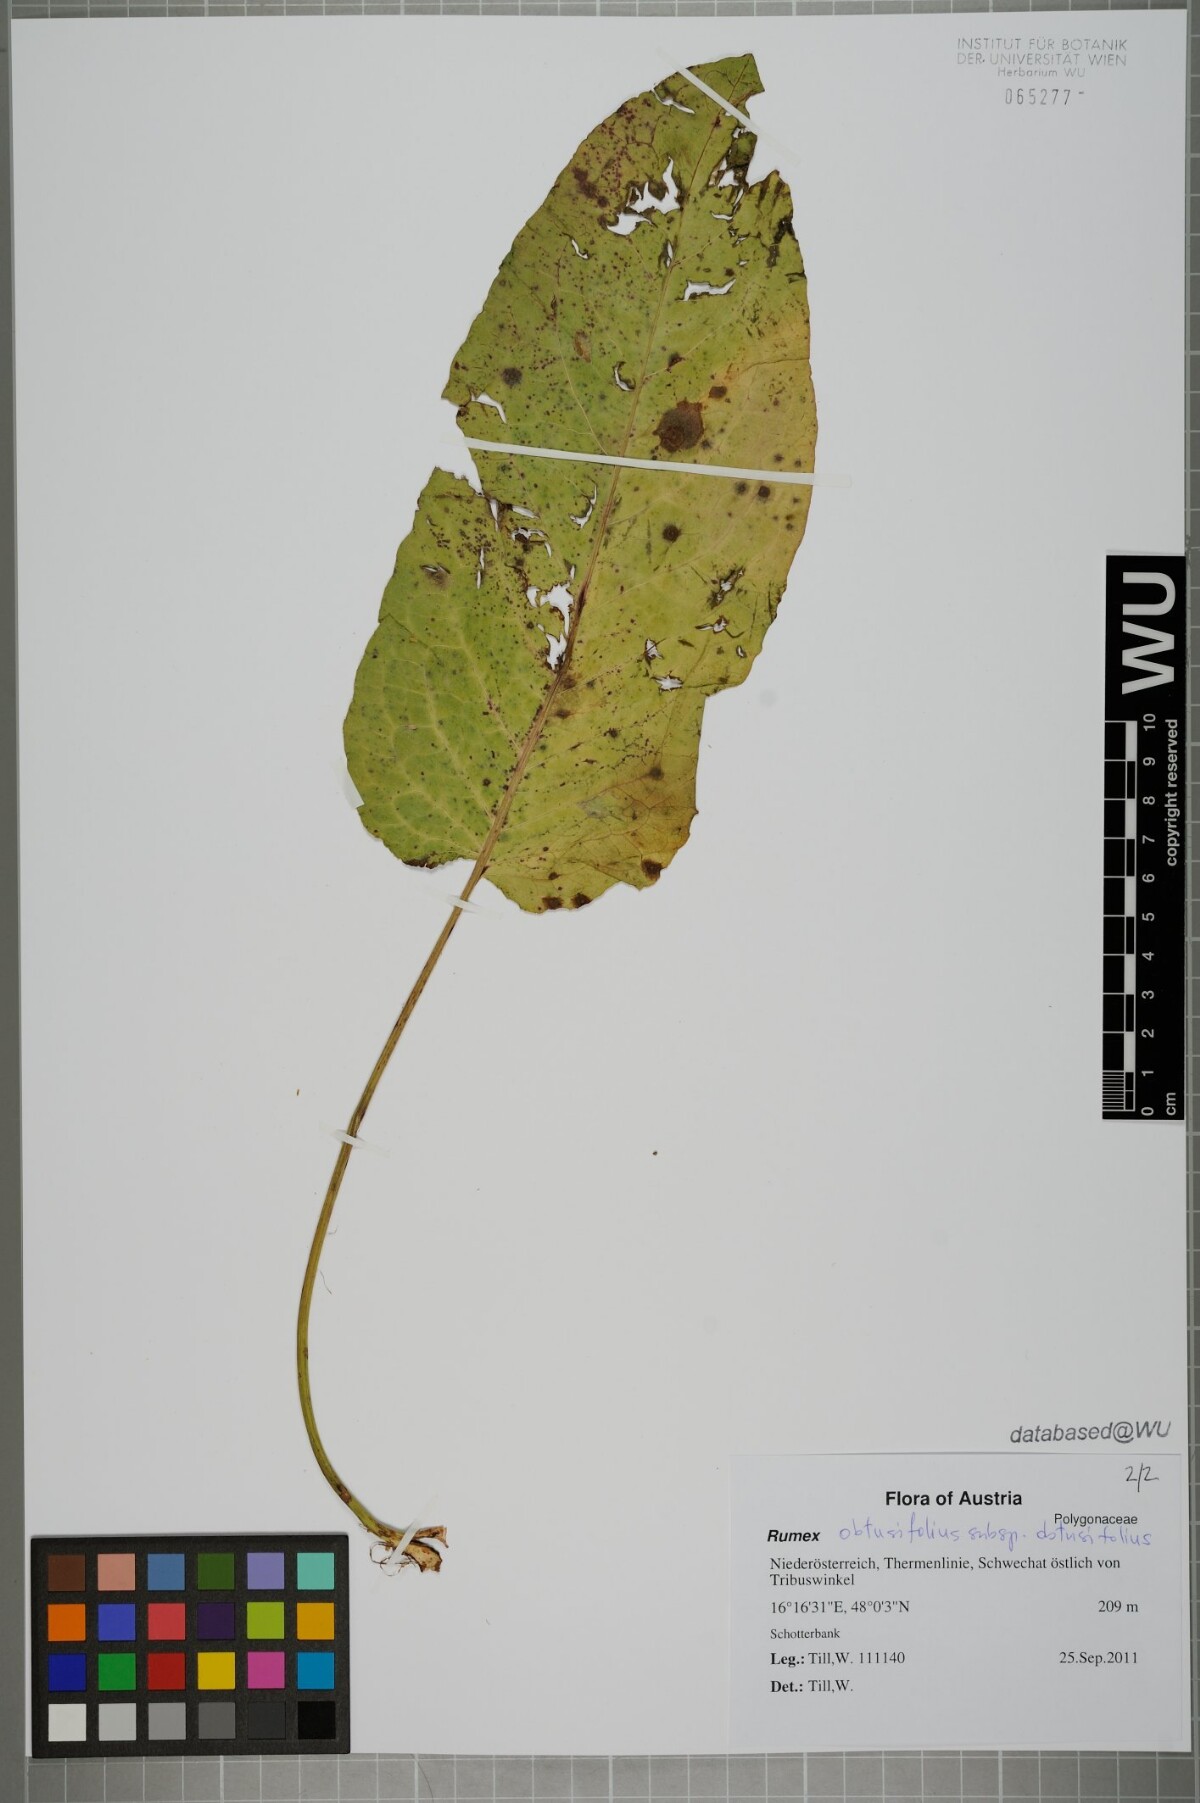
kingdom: Plantae
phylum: Tracheophyta
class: Magnoliopsida
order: Caryophyllales
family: Polygonaceae
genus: Rumex
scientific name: Rumex obtusifolius
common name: Bitter dock
